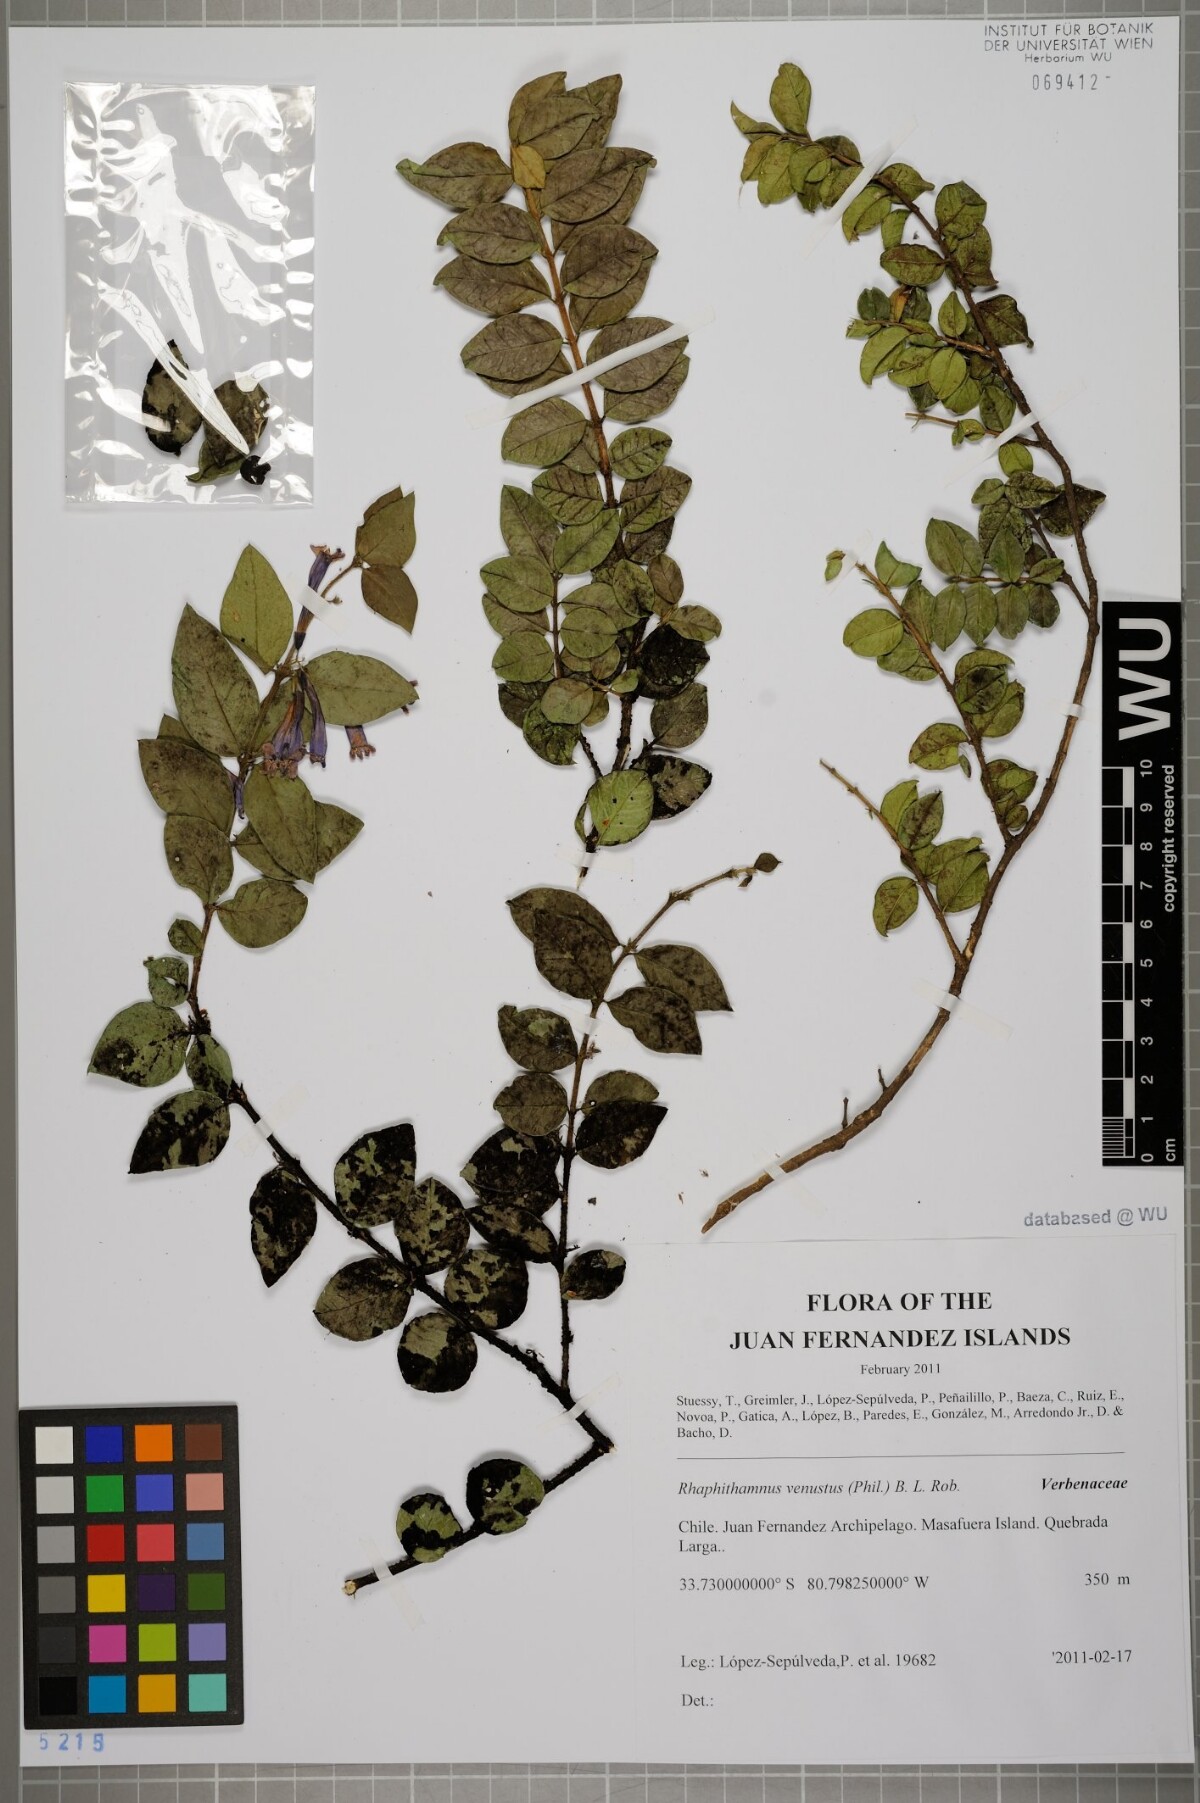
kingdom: Plantae
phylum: Tracheophyta
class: Magnoliopsida
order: Lamiales
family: Verbenaceae
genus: Rhaphithamnus
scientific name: Rhaphithamnus venustus
